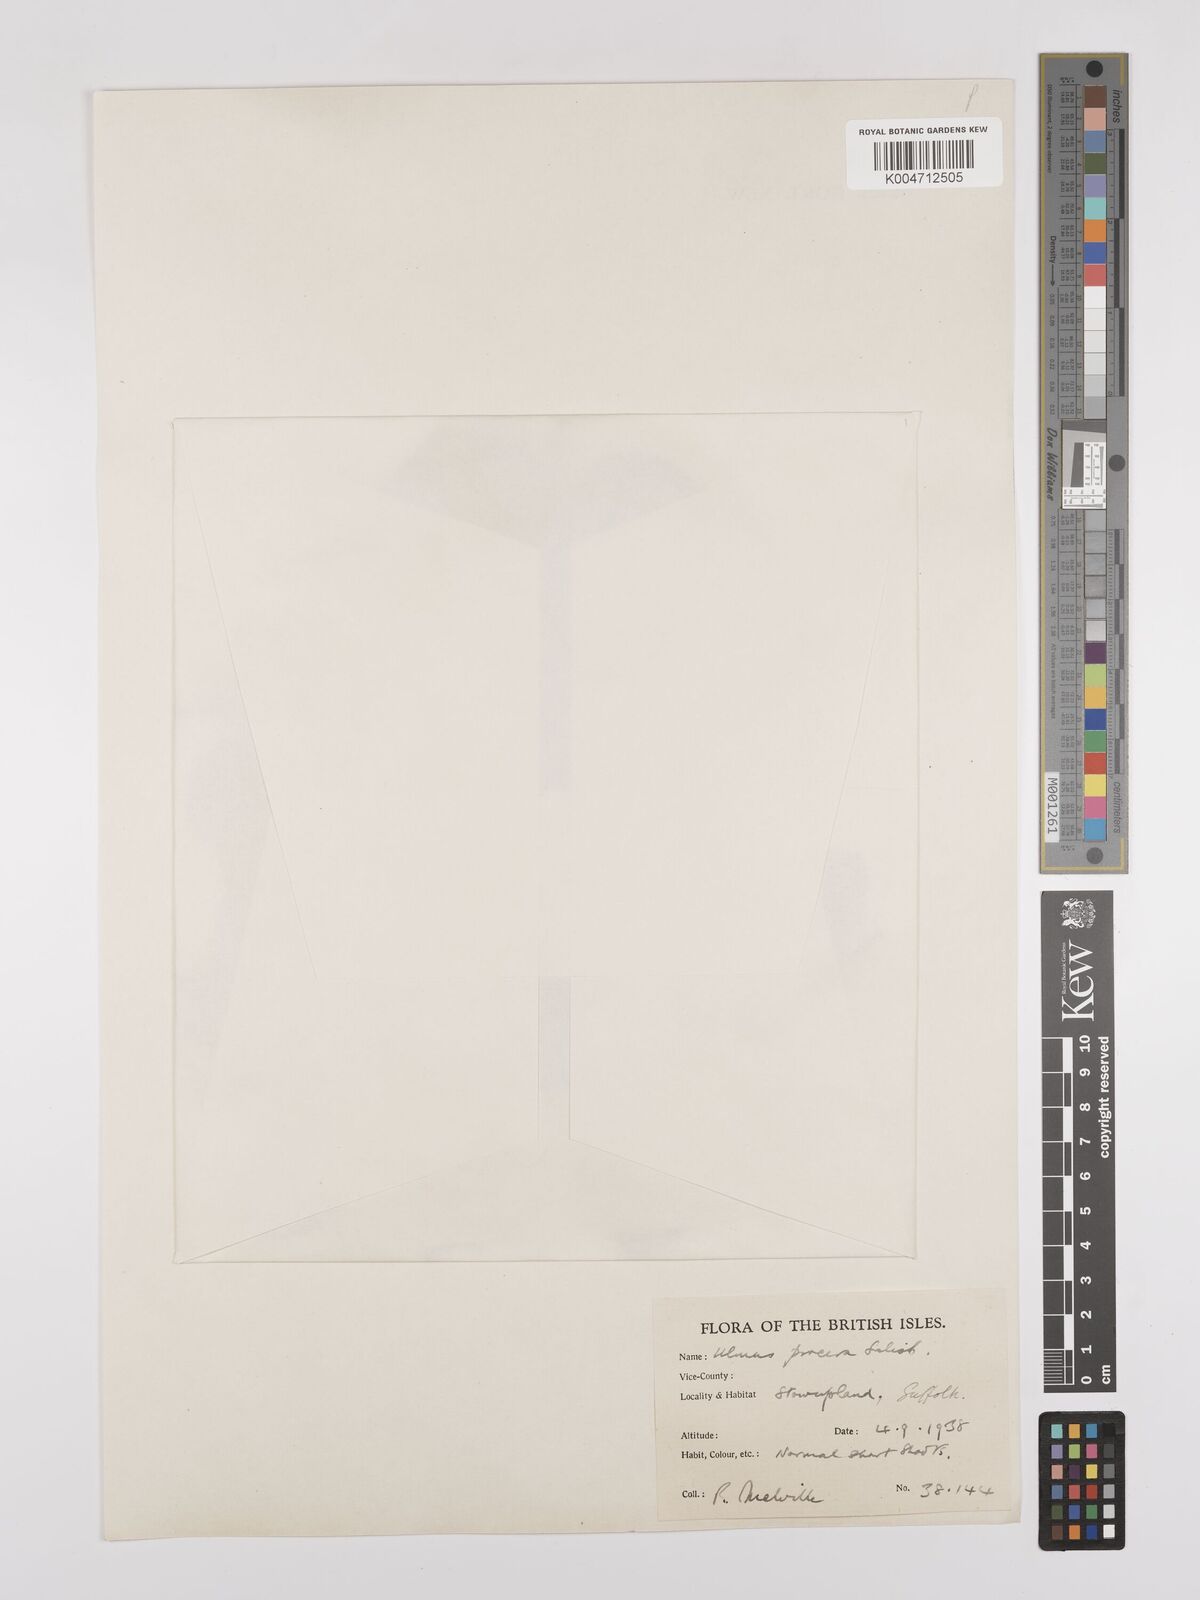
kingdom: Plantae
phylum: Tracheophyta
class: Magnoliopsida
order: Rosales
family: Ulmaceae
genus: Ulmus
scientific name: Ulmus minor
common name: Small-leaved elm
